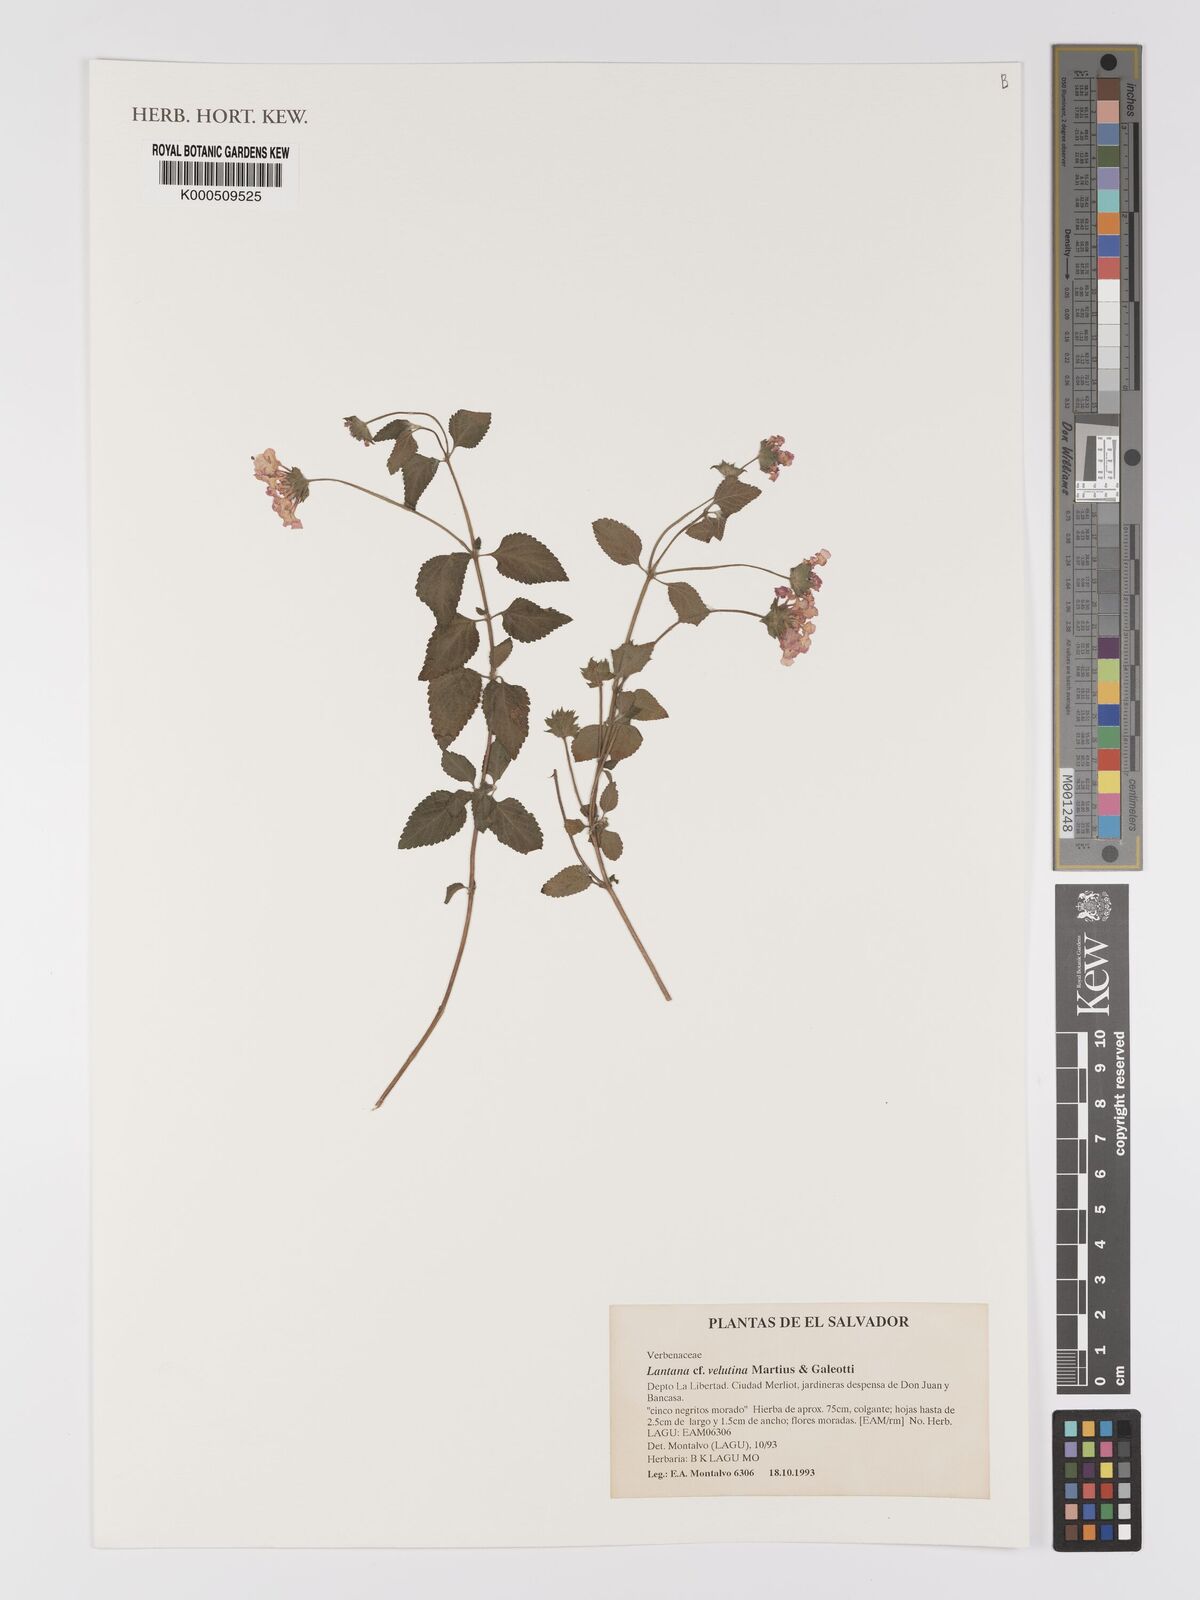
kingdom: Plantae
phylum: Tracheophyta
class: Magnoliopsida
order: Lamiales
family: Verbenaceae
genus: Lantana
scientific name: Lantana
